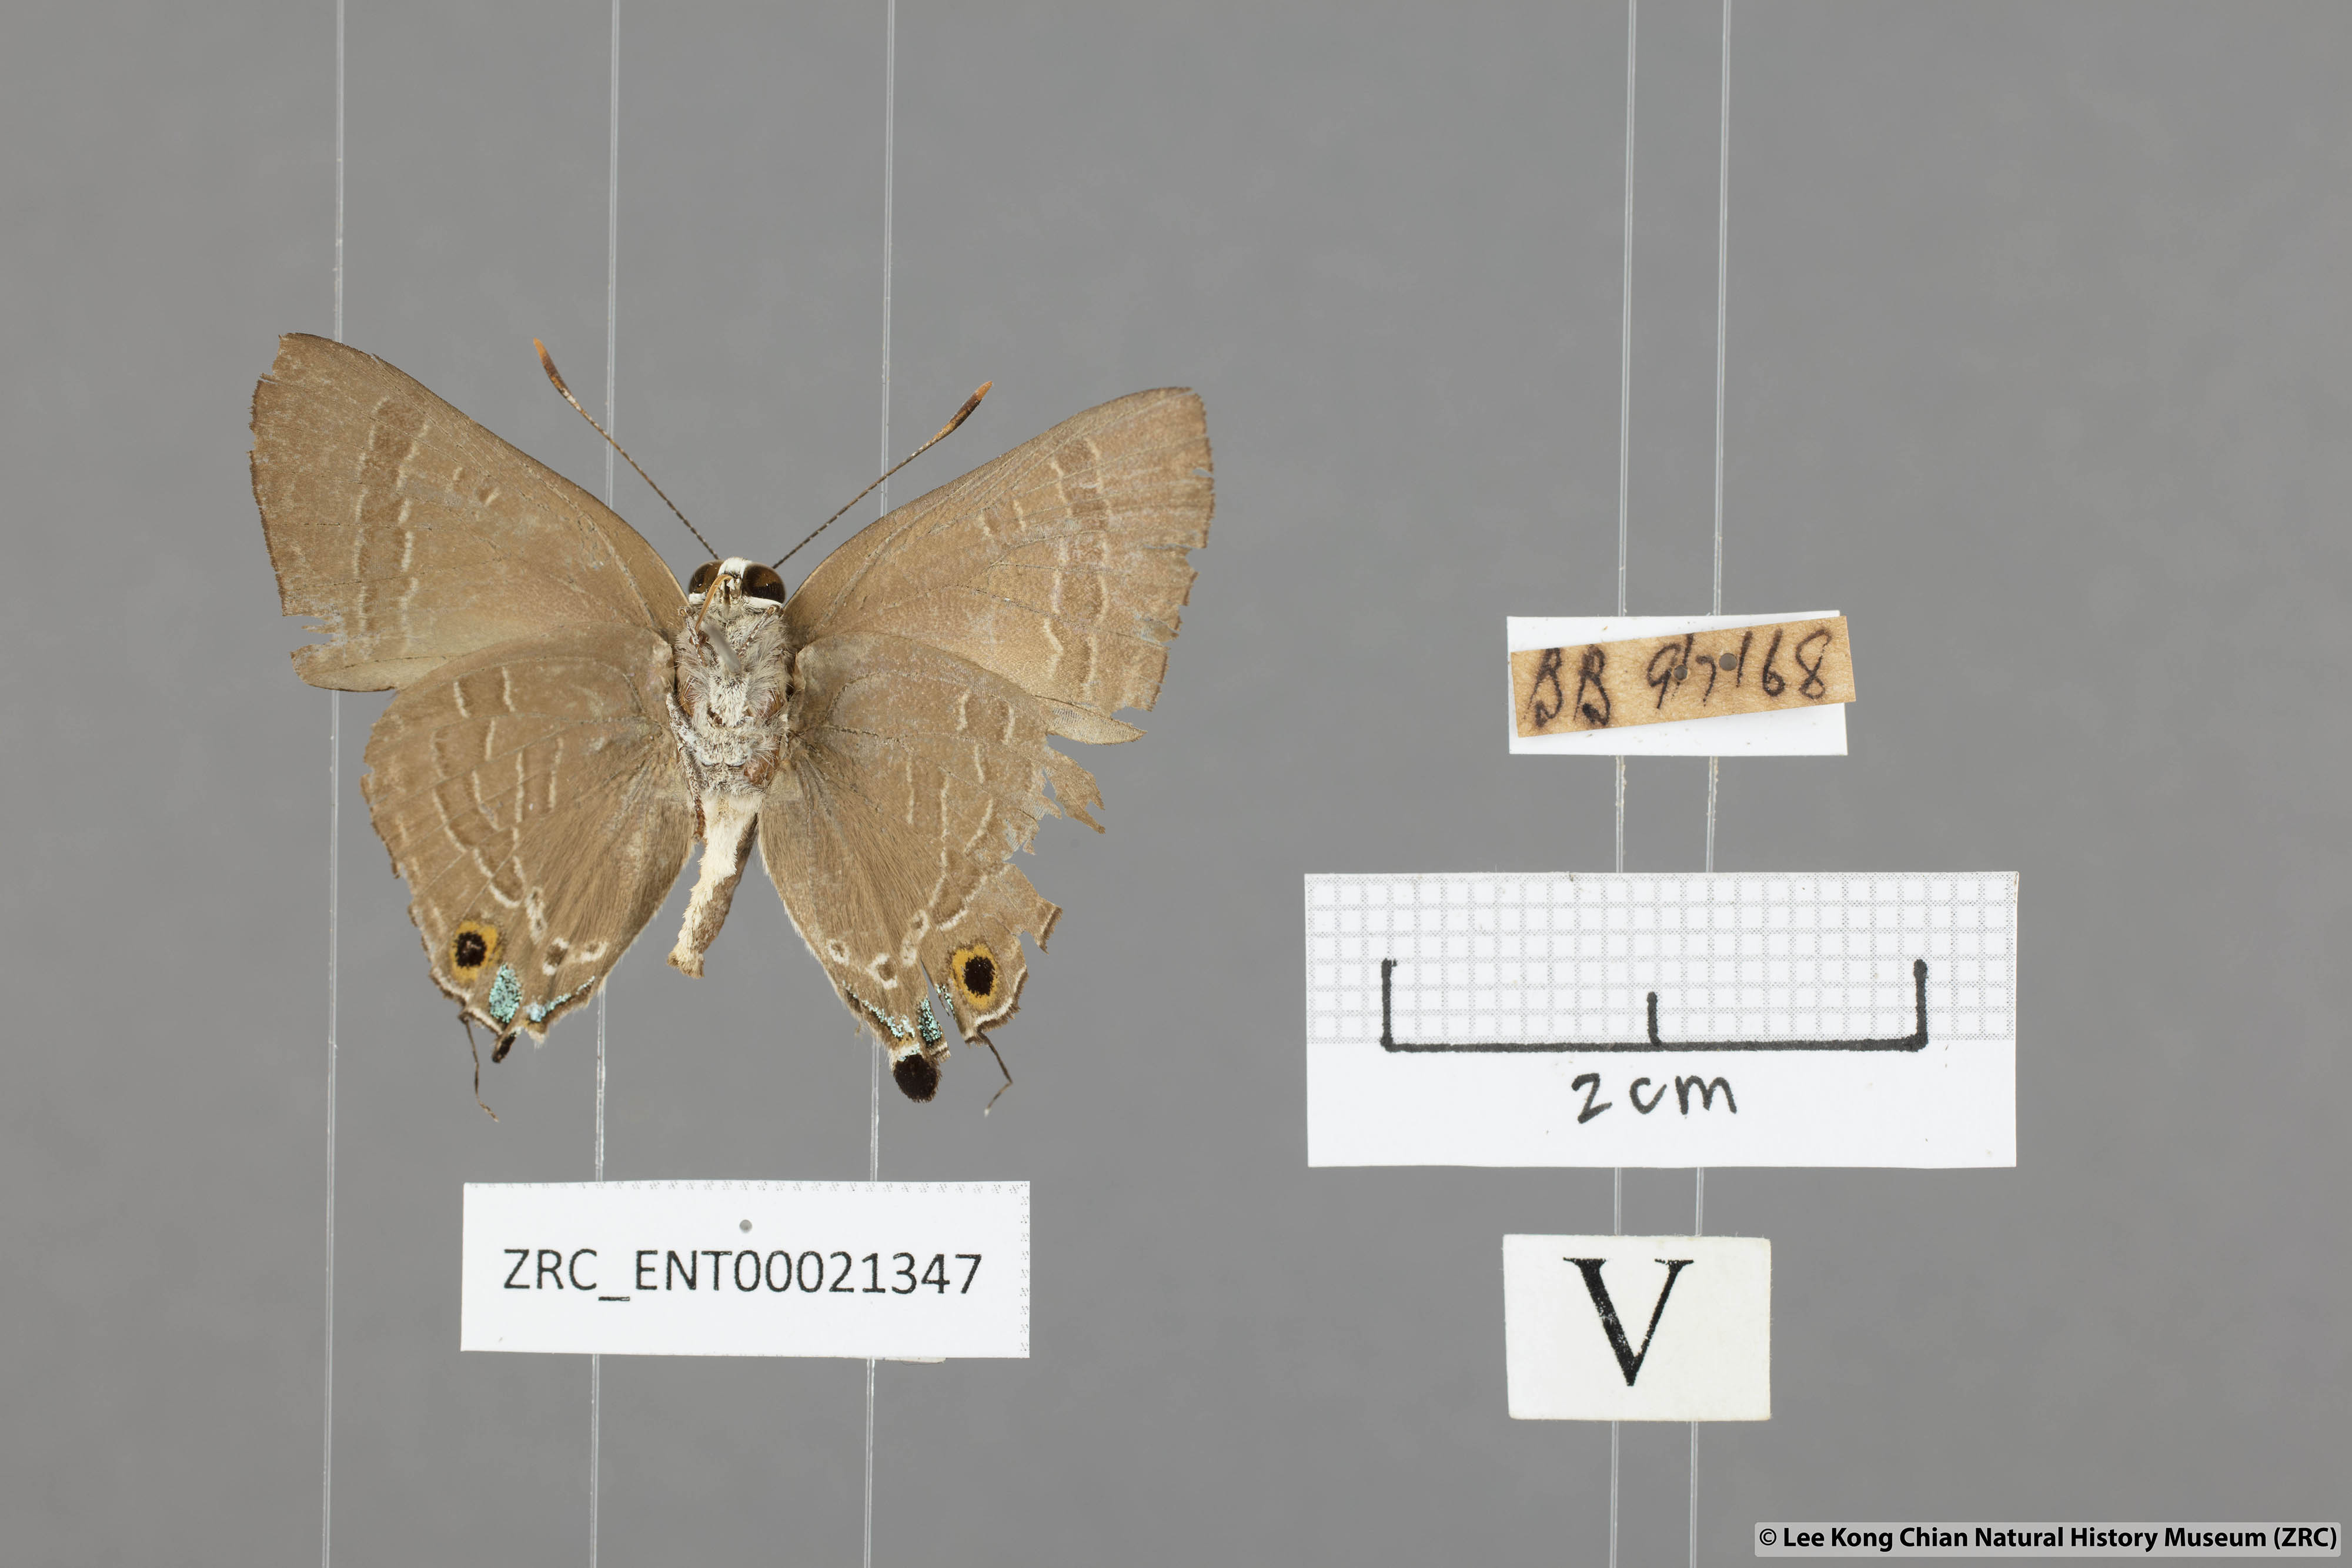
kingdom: Animalia
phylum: Arthropoda
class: Insecta
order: Lepidoptera
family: Lycaenidae
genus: Deudorix
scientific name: Deudorix staudingeri
